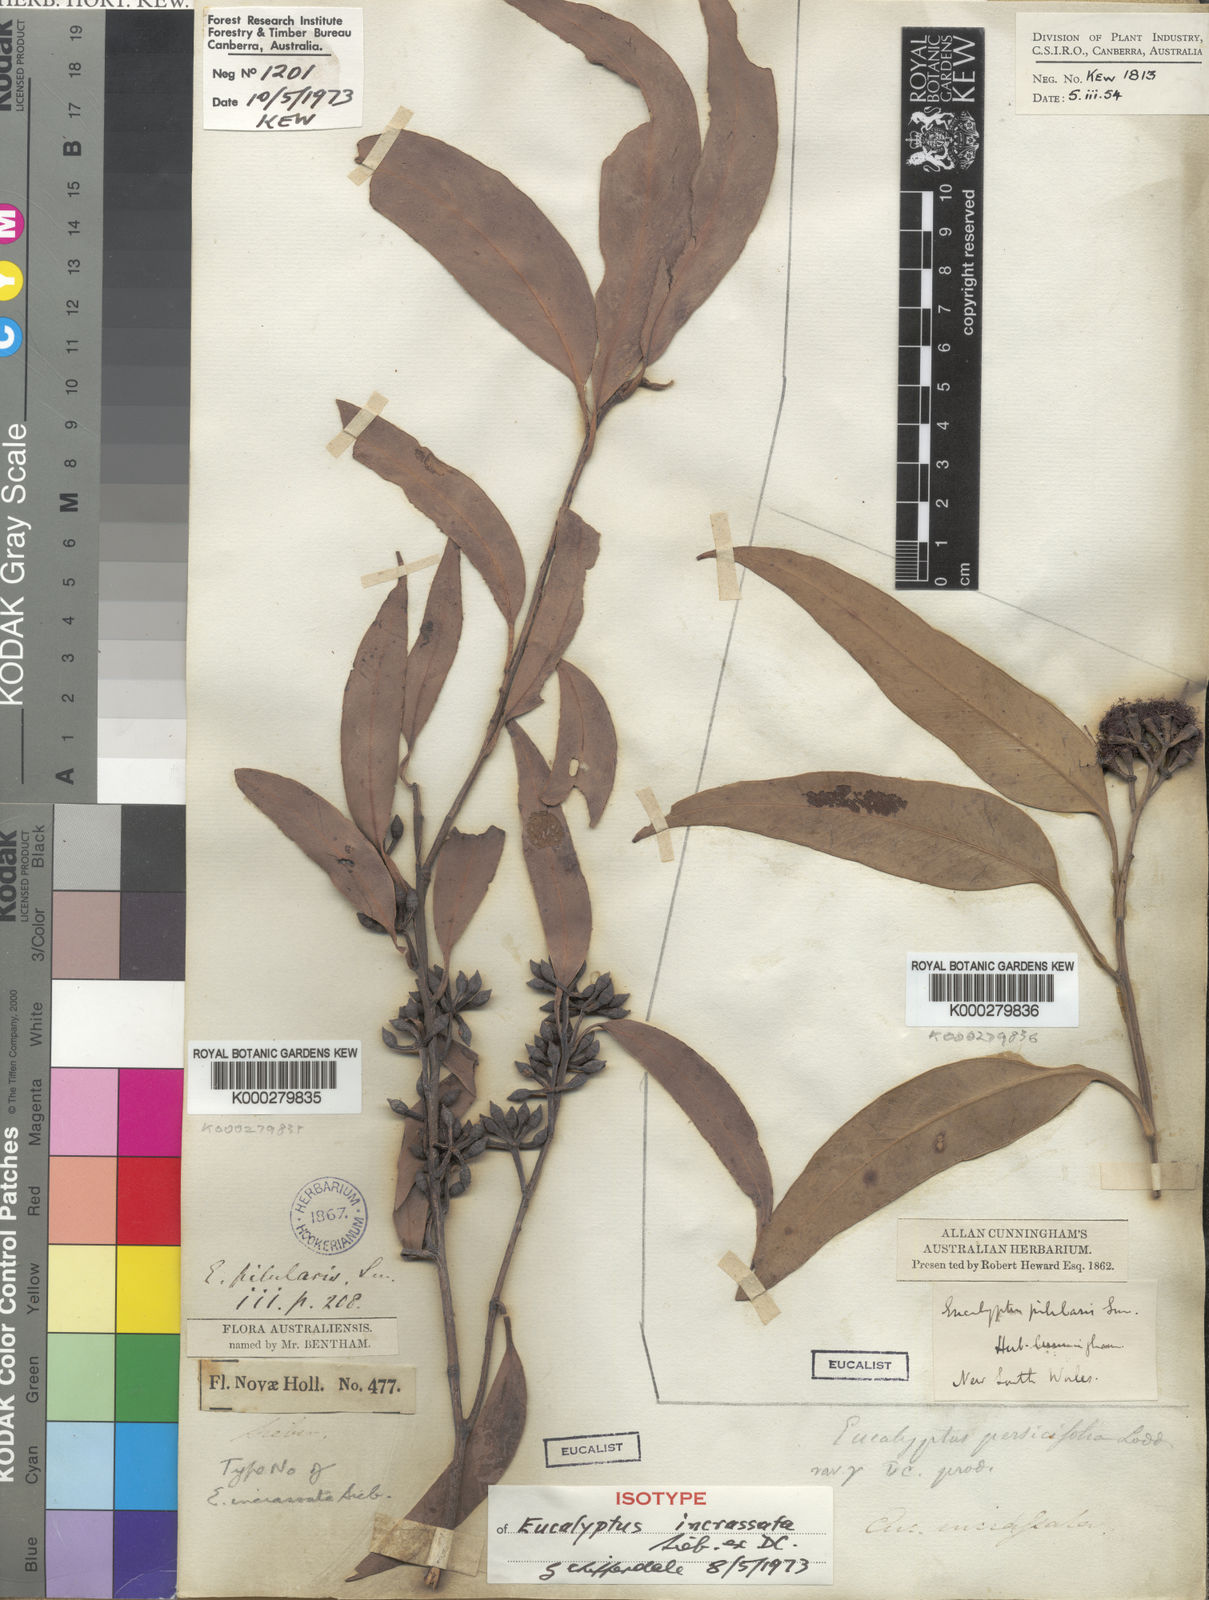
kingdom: Plantae
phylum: Tracheophyta
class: Magnoliopsida
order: Myrtales
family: Myrtaceae
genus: Eucalyptus
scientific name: Eucalyptus pilularis
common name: Blackbutt
